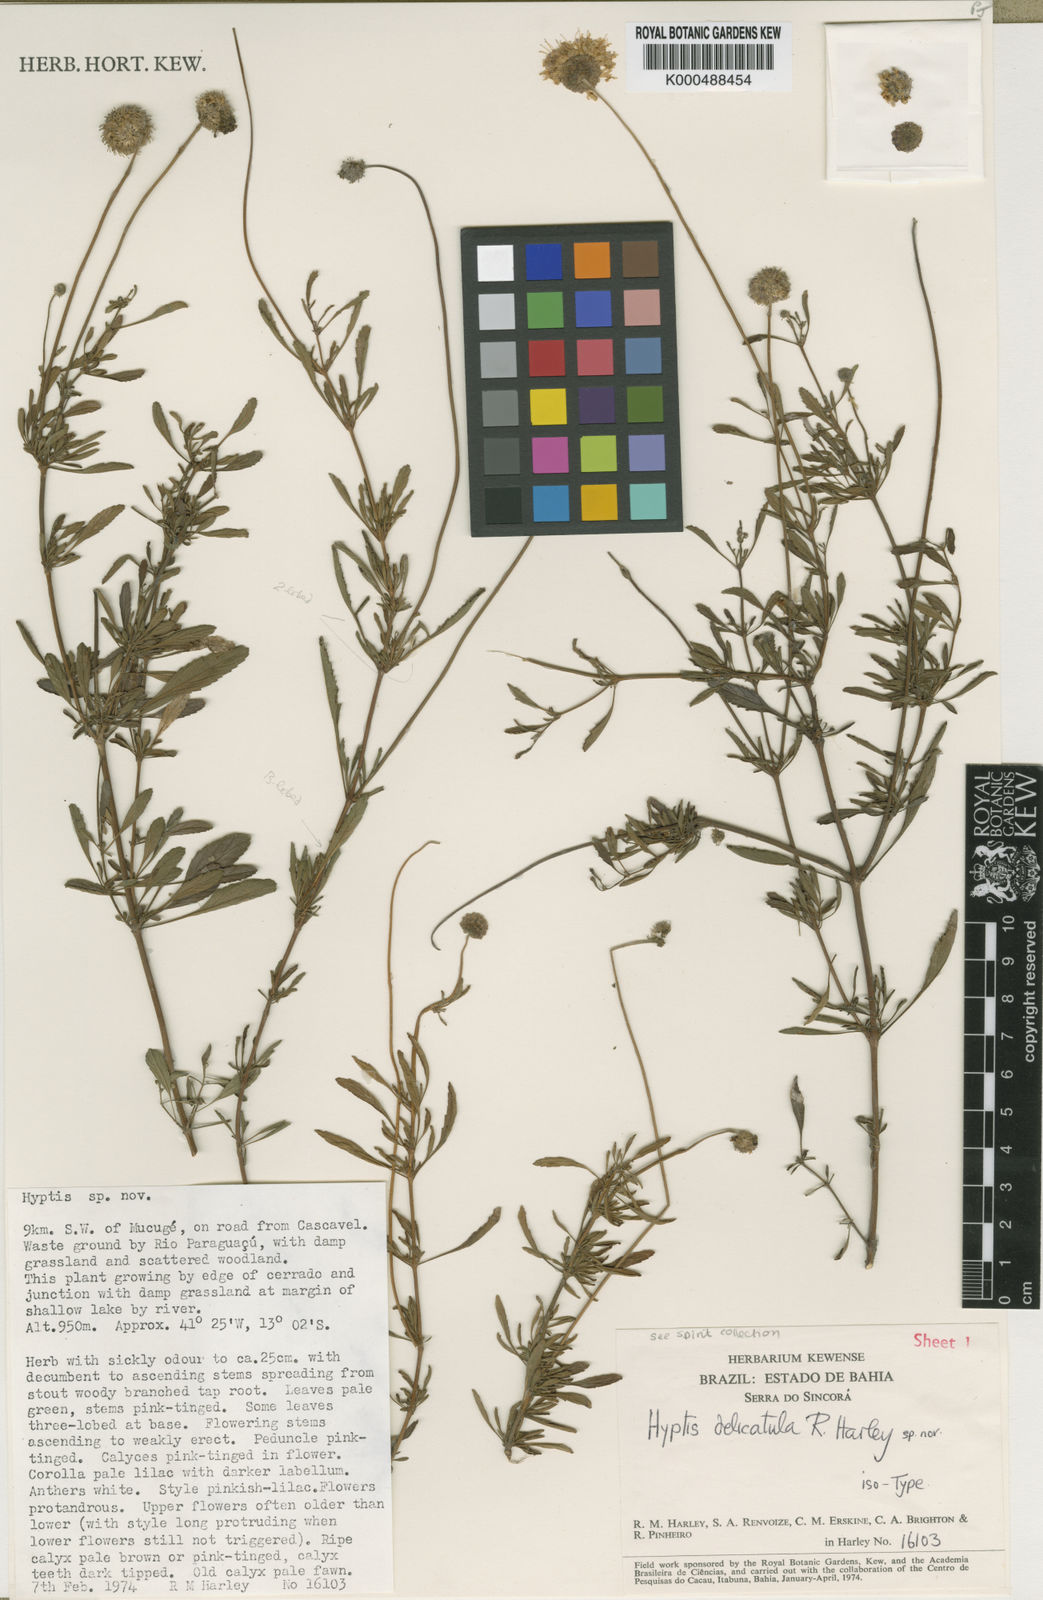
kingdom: Plantae
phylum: Tracheophyta
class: Magnoliopsida
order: Lamiales
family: Lamiaceae
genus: Hyptis
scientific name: Hyptis
